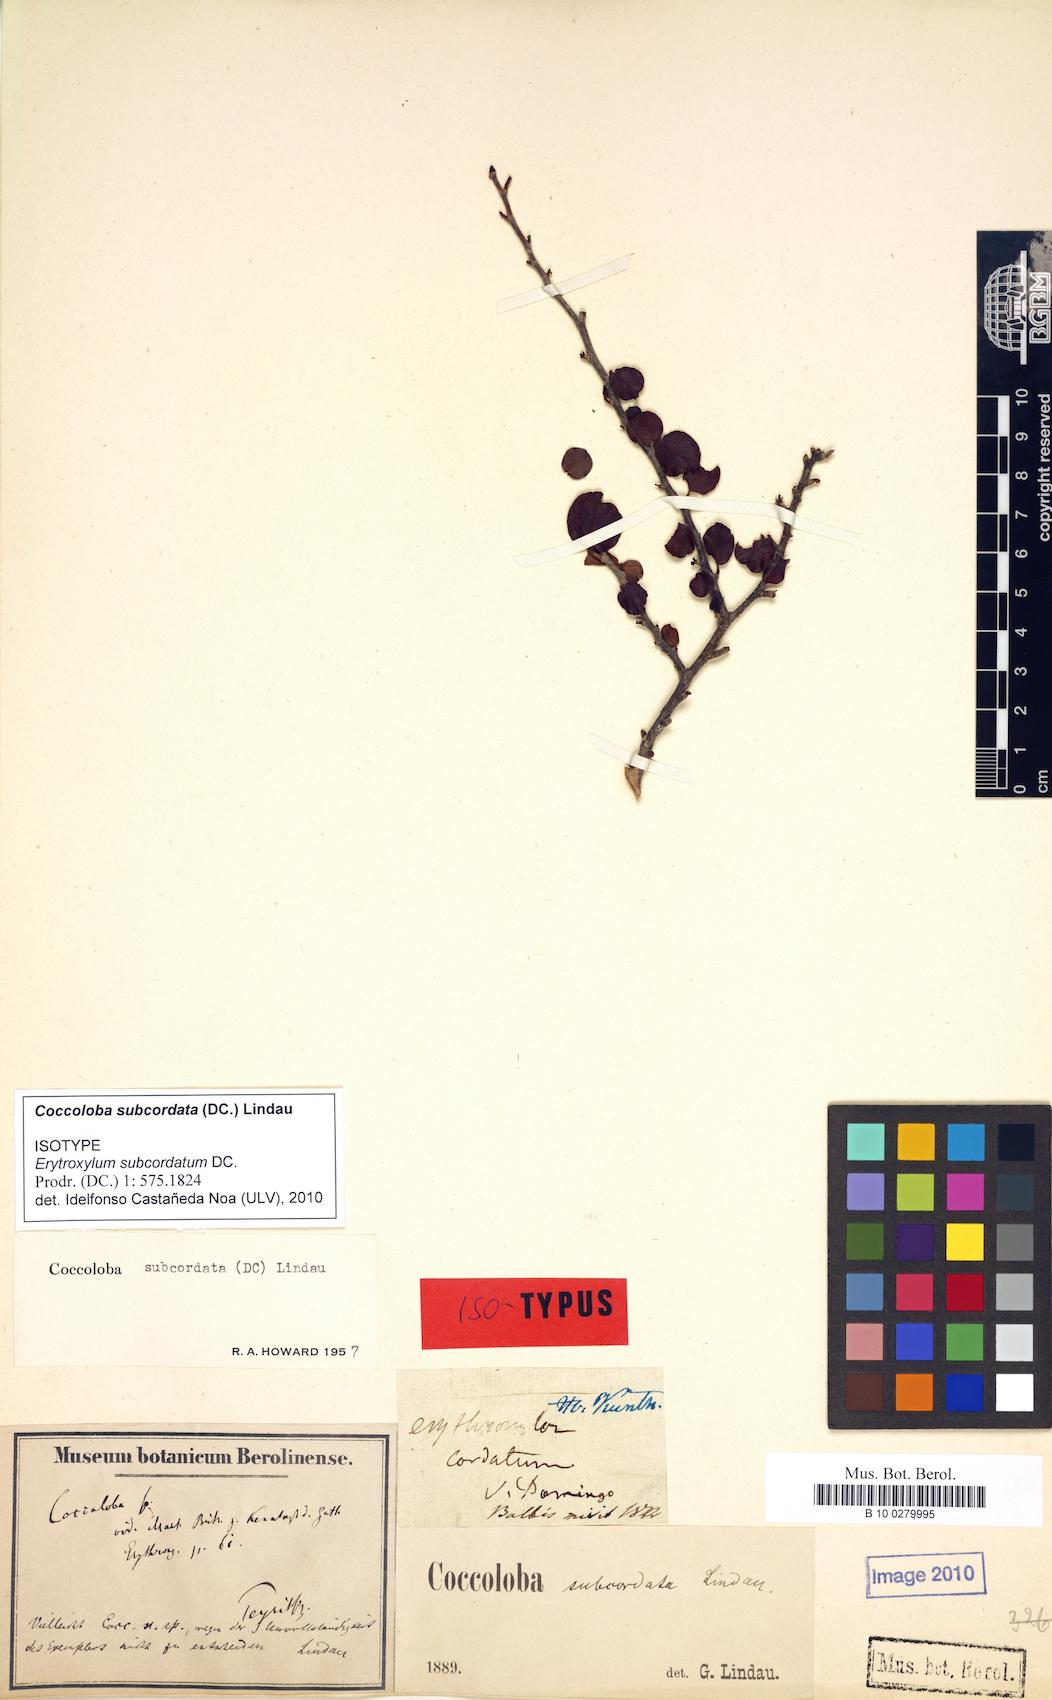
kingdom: Plantae
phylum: Tracheophyta
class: Magnoliopsida
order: Caryophyllales
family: Polygonaceae
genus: Coccoloba
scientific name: Coccoloba subcordata
